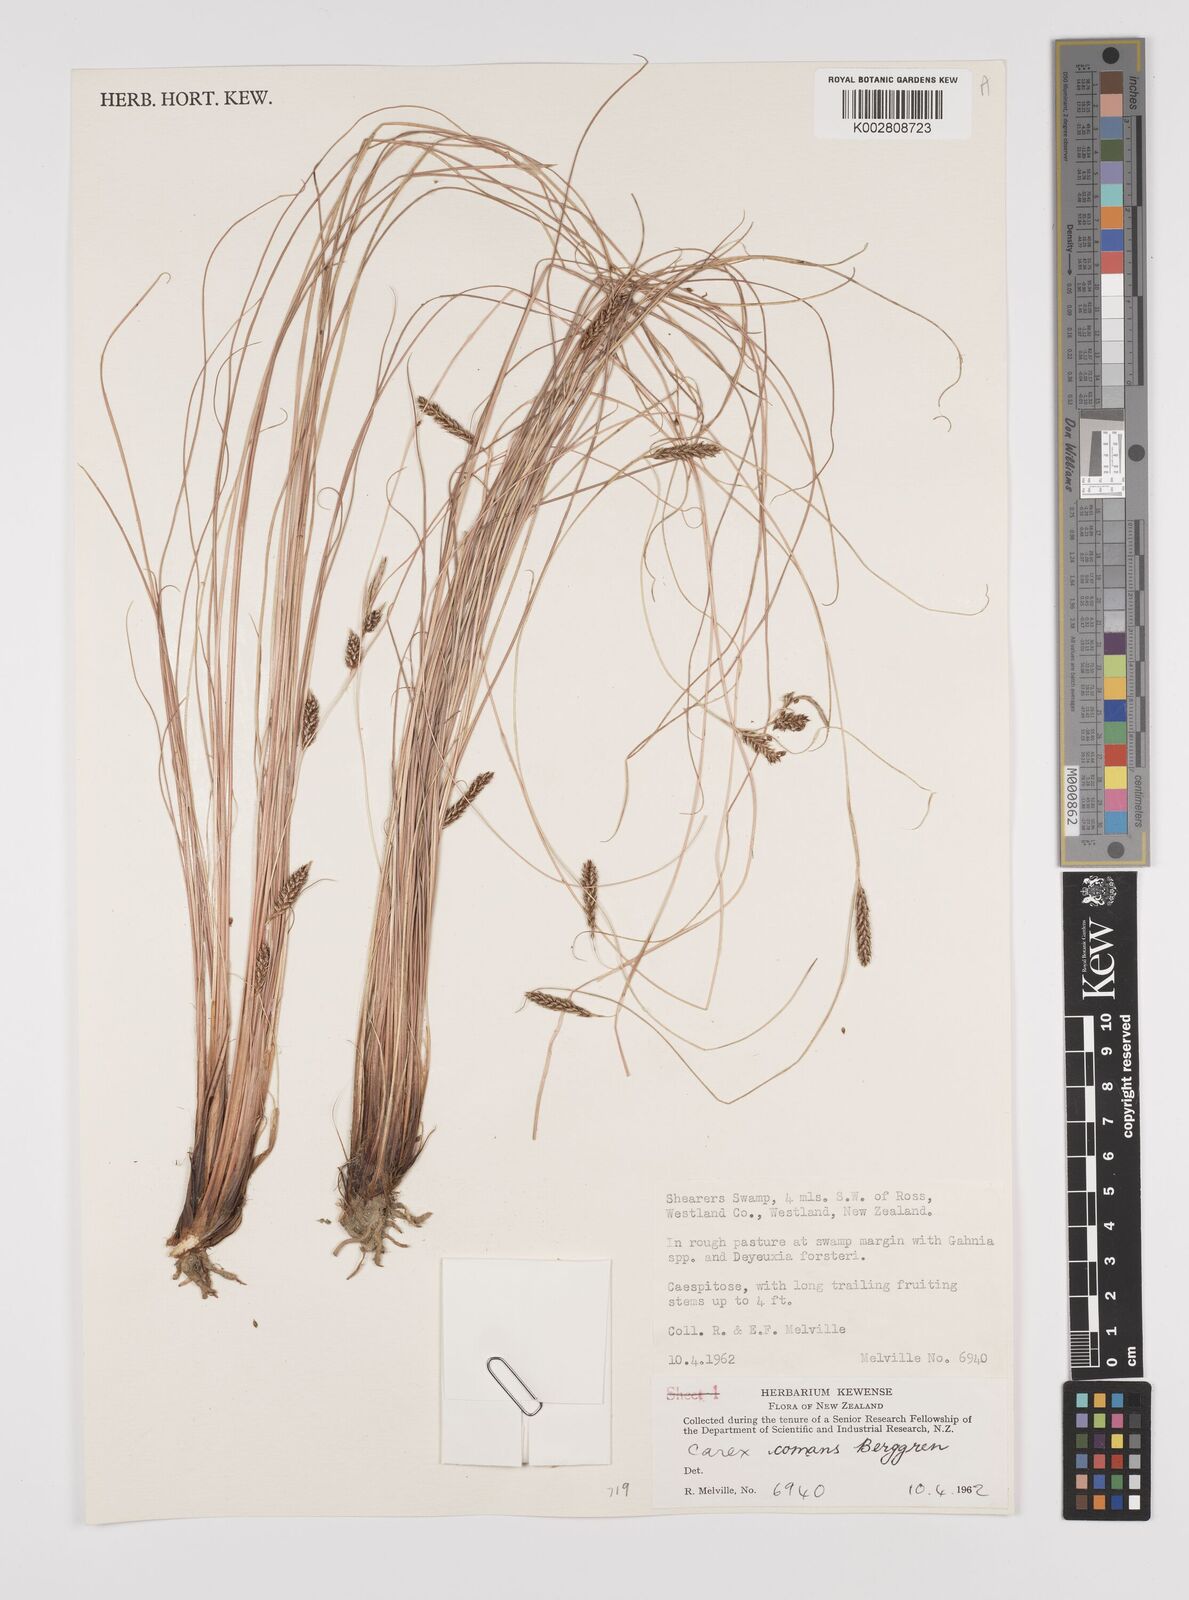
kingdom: Plantae
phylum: Tracheophyta
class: Liliopsida
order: Poales
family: Cyperaceae
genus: Carex
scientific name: Carex comans
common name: Longwood tussock
